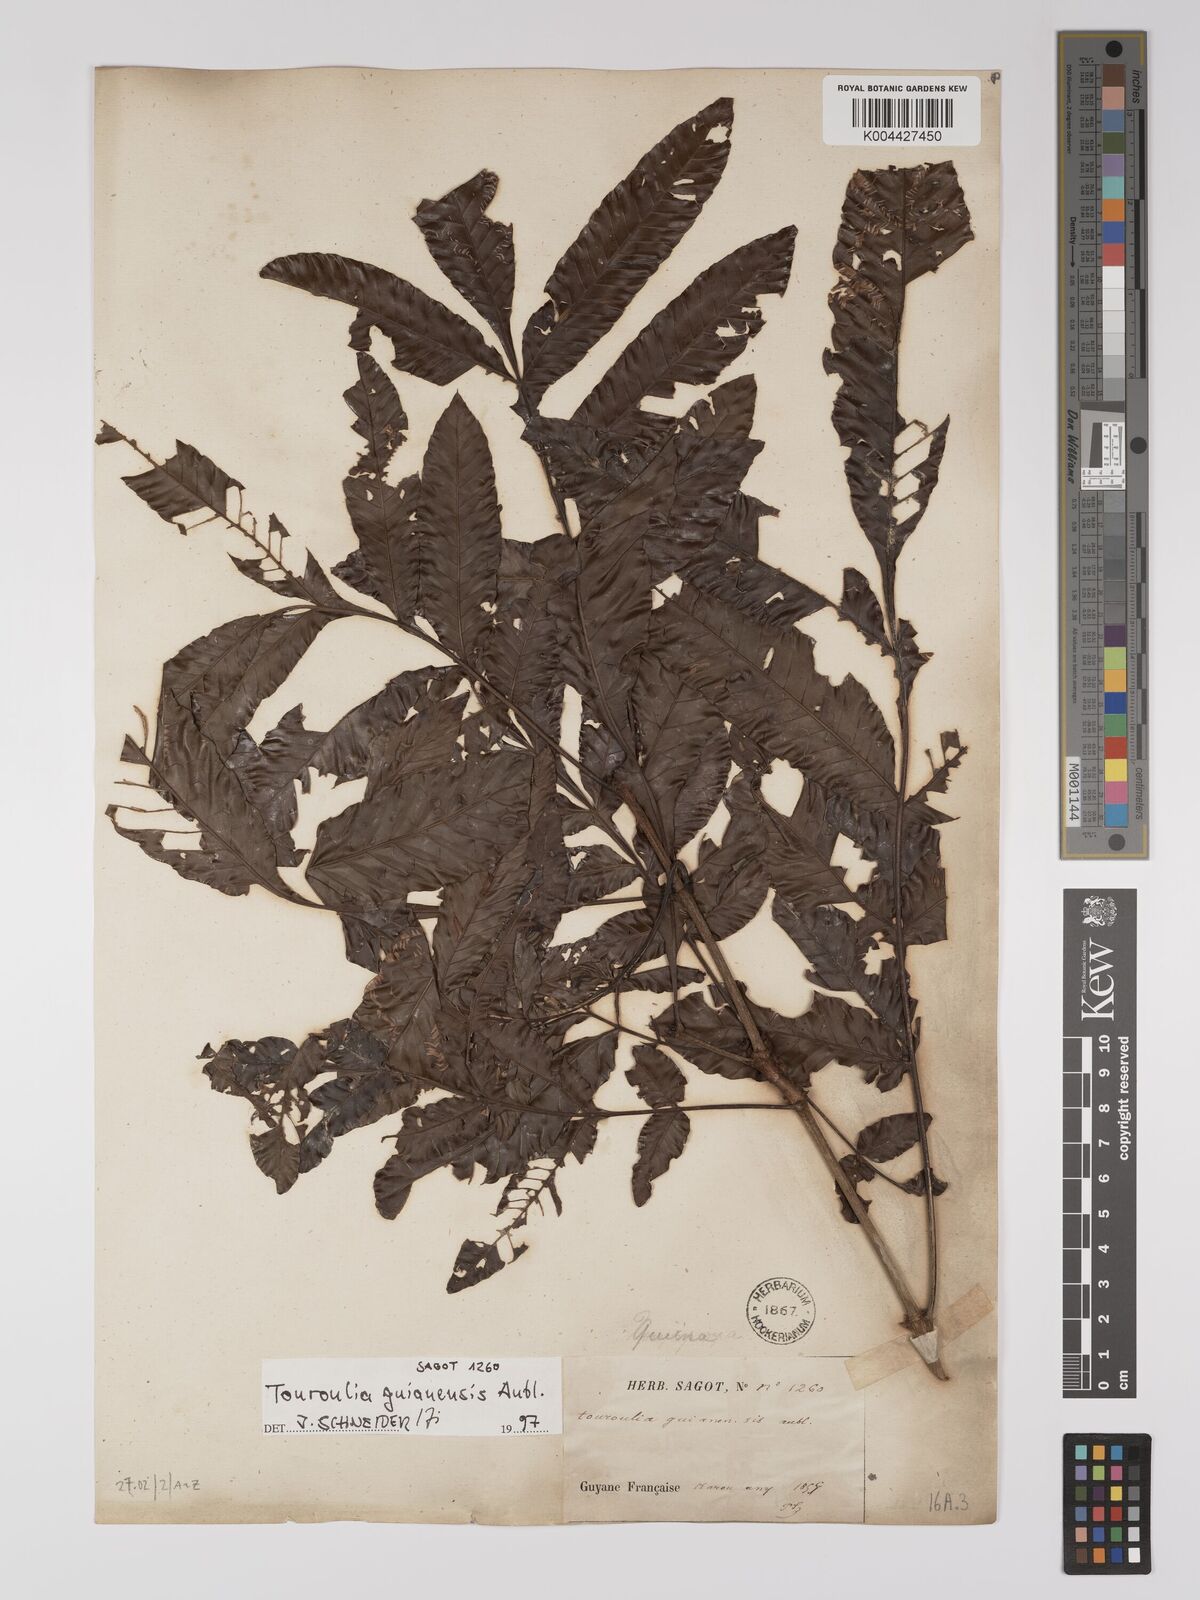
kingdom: Plantae
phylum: Tracheophyta
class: Magnoliopsida
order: Malpighiales
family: Quiinaceae
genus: Touroulia
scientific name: Touroulia guianensis
